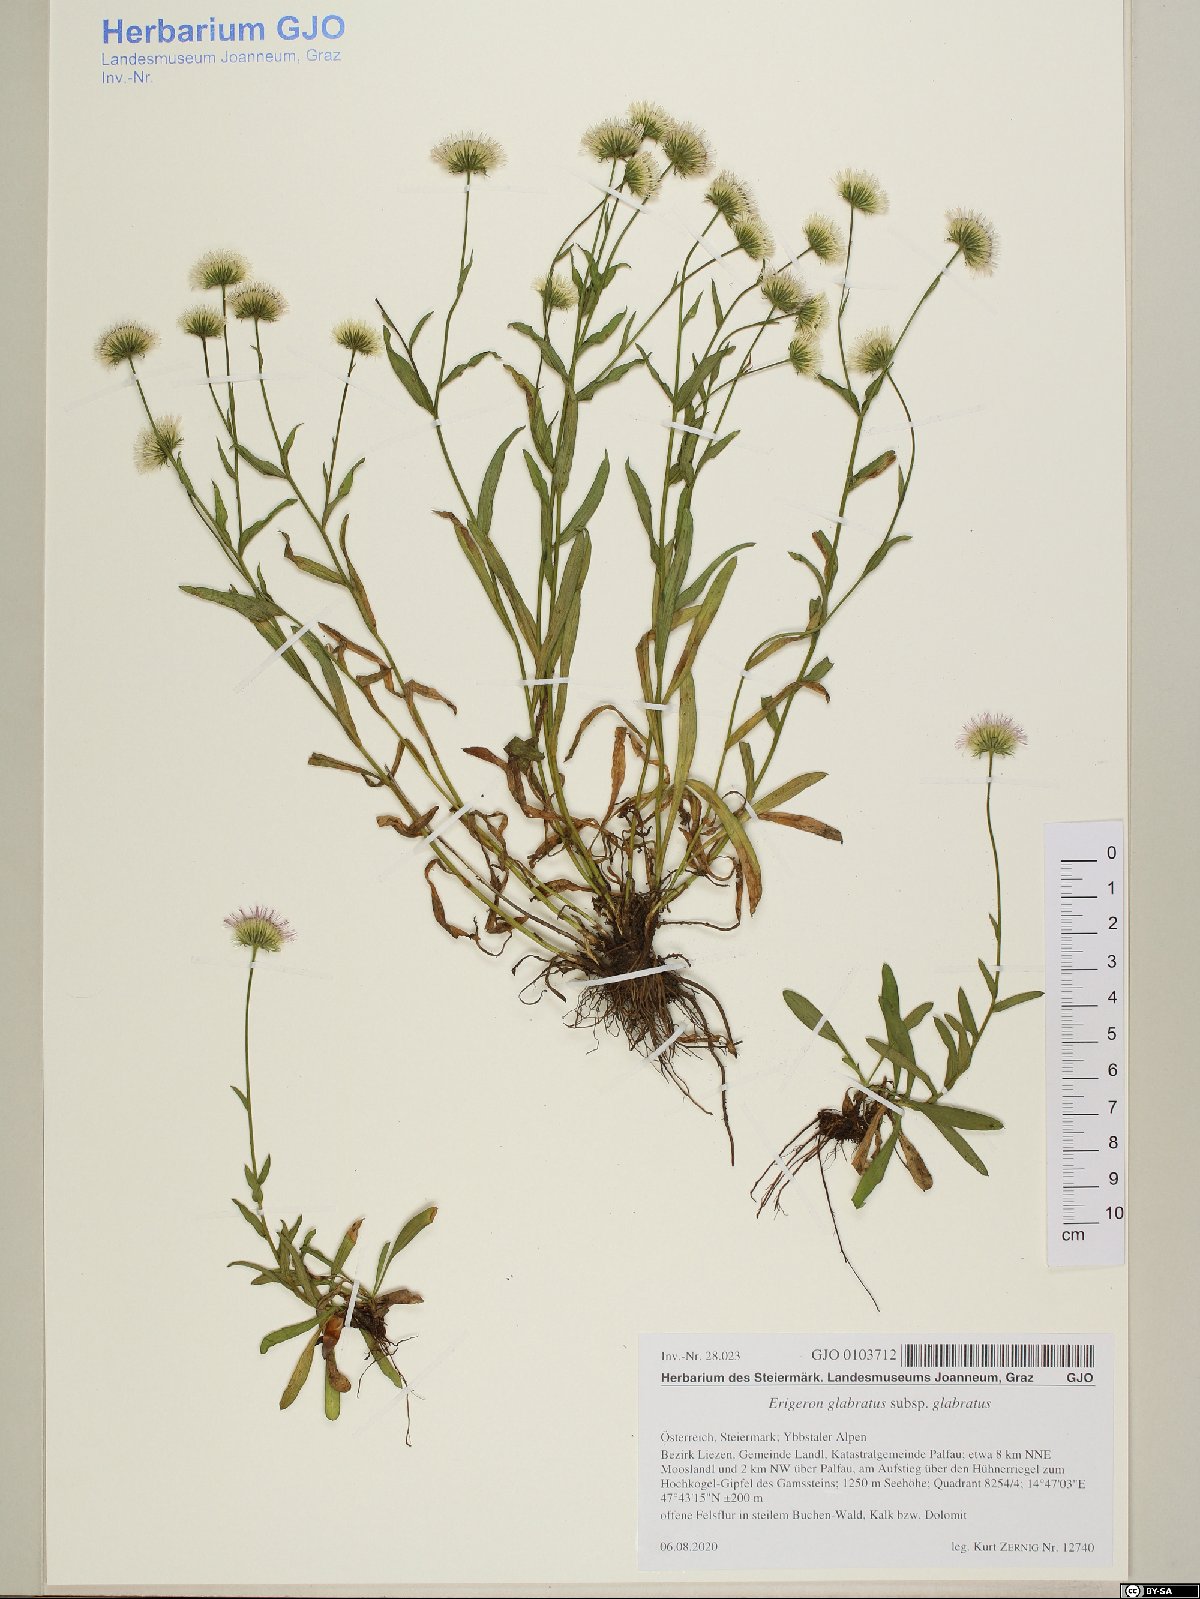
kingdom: Plantae
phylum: Tracheophyta
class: Magnoliopsida
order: Asterales
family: Asteraceae
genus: Erigeron
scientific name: Erigeron glabratus
